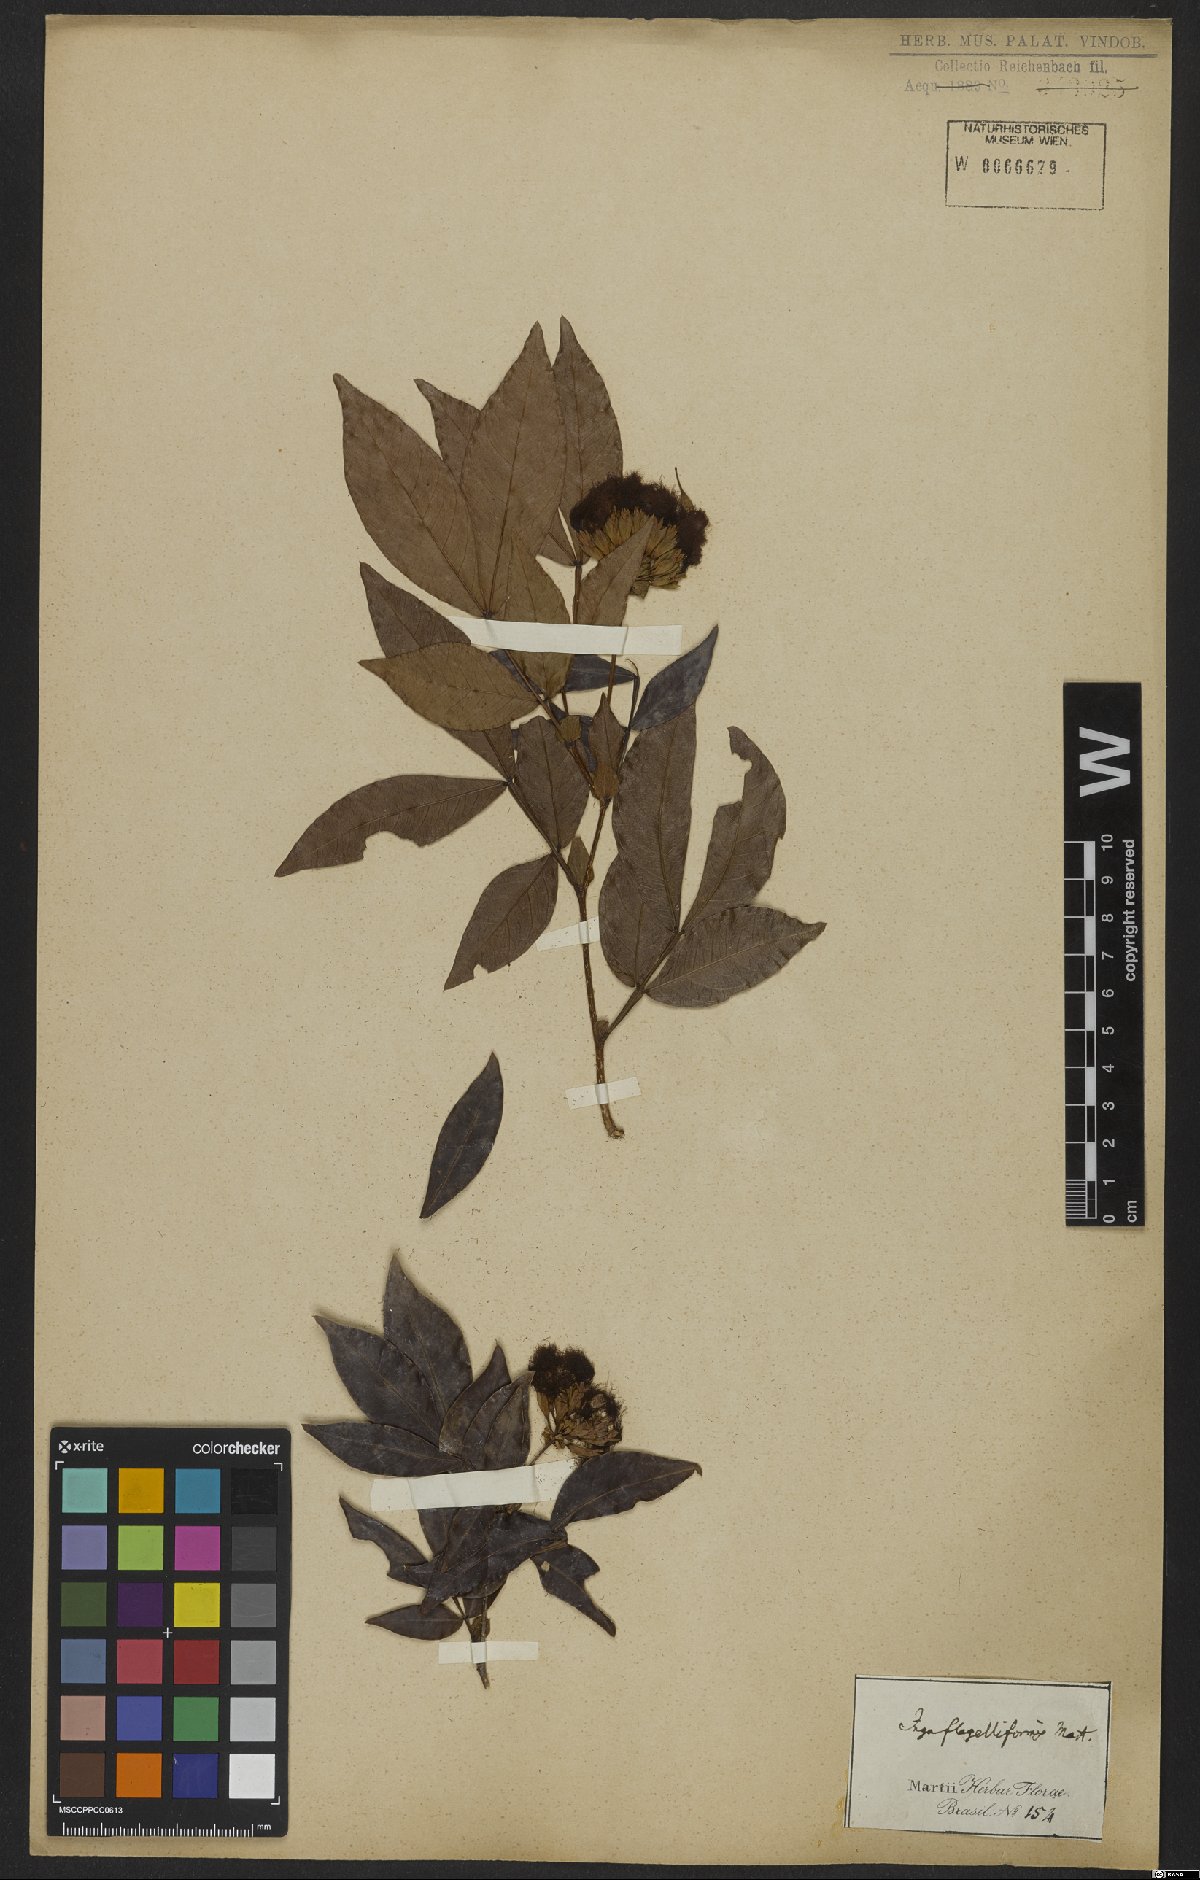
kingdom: Plantae
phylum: Tracheophyta
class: Magnoliopsida
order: Fabales
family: Fabaceae
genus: Inga
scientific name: Inga flagelliformis
